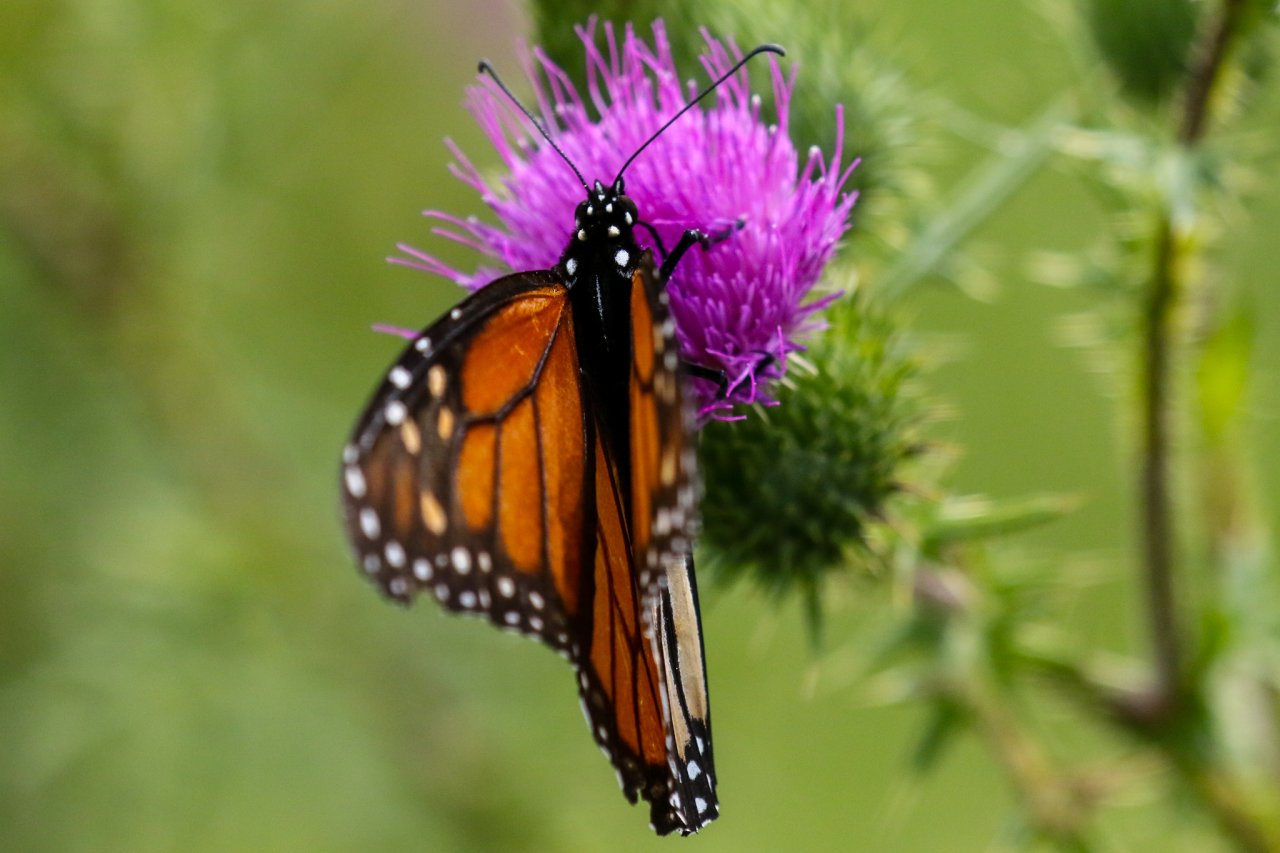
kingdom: Animalia
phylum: Arthropoda
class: Insecta
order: Lepidoptera
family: Nymphalidae
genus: Danaus
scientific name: Danaus plexippus
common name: Monarch
